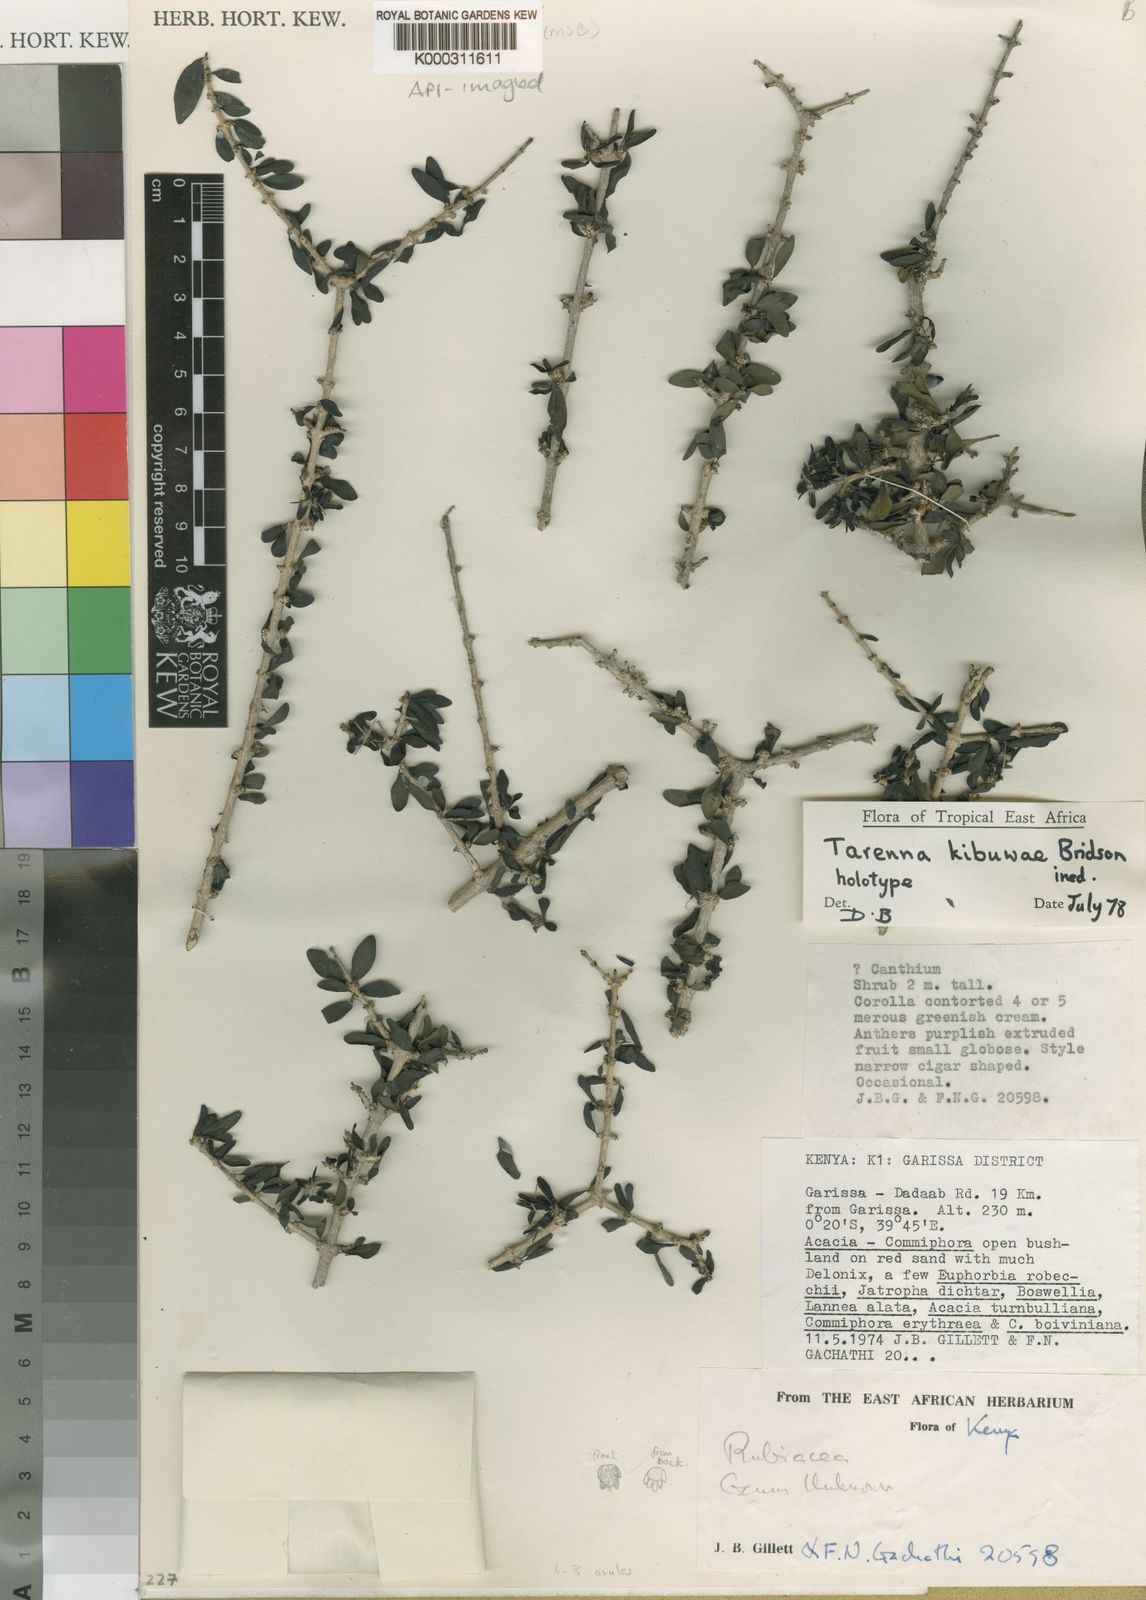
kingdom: Plantae
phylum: Tracheophyta
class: Magnoliopsida
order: Gentianales
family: Rubiaceae
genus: Coptosperma
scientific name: Coptosperma kibuwae
